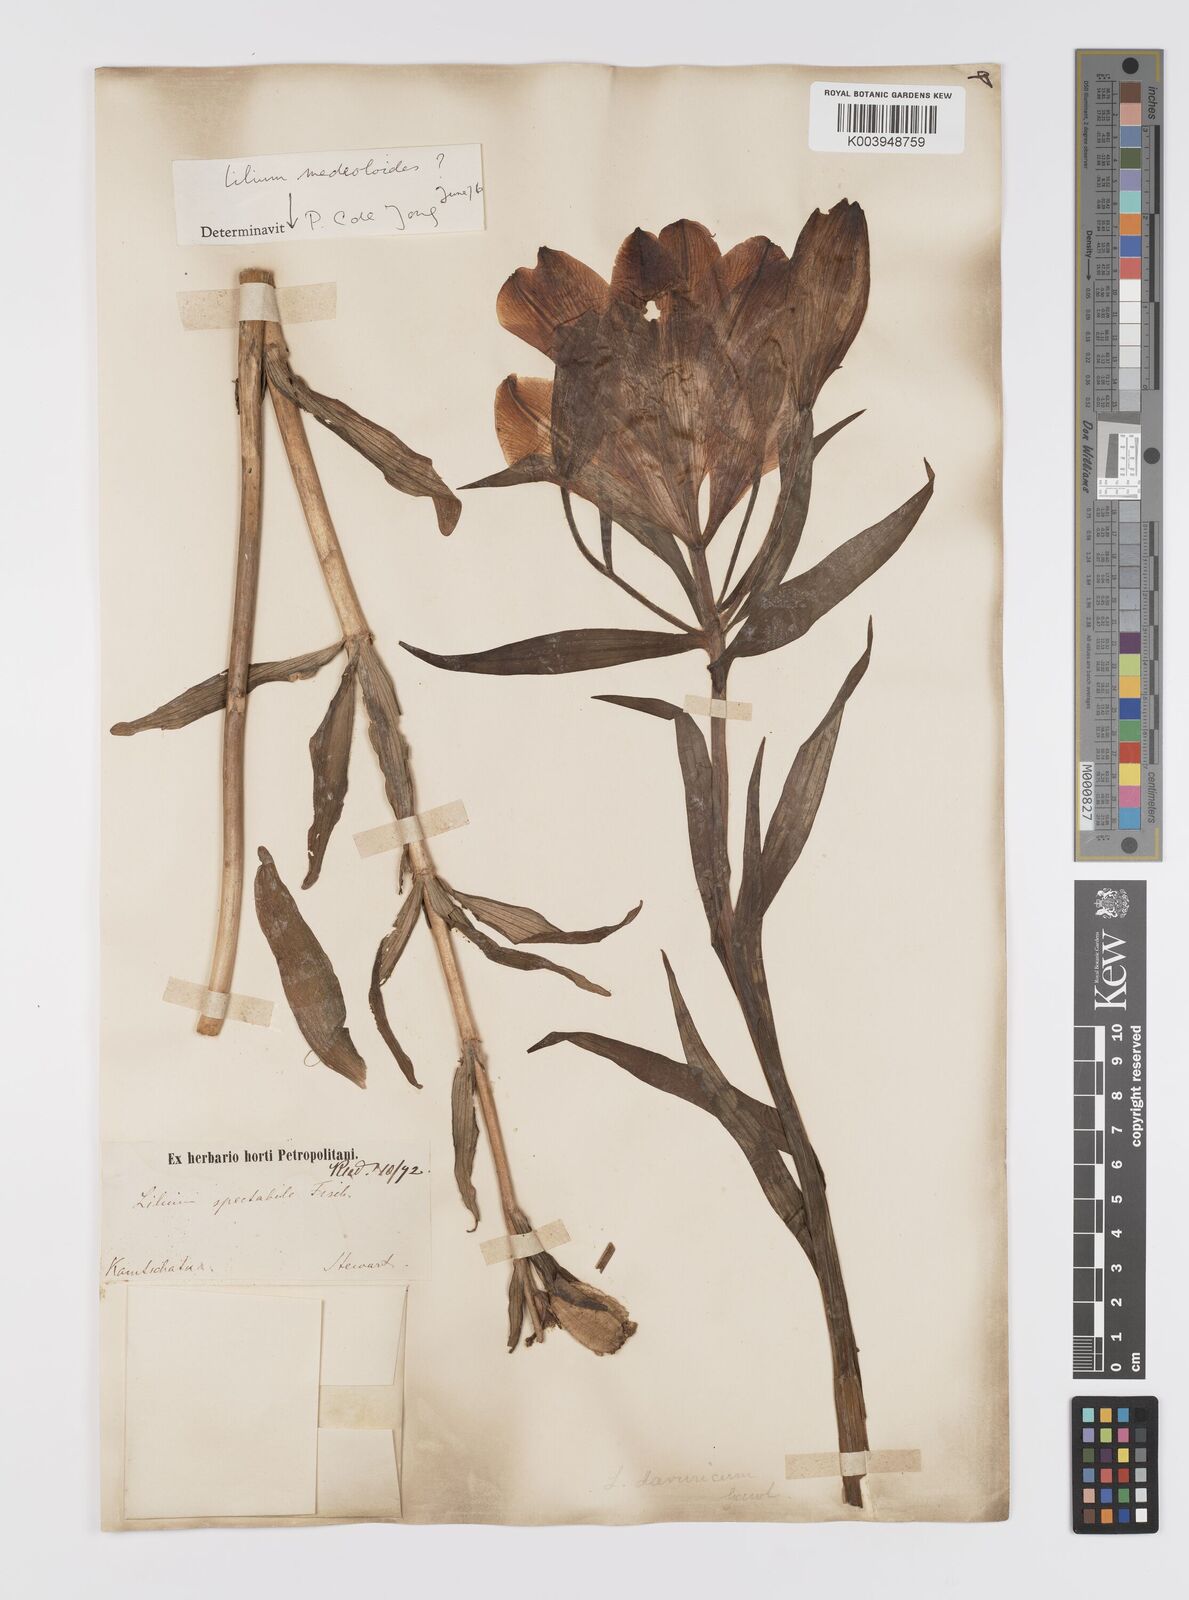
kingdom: Plantae
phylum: Tracheophyta
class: Liliopsida
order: Liliales
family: Liliaceae
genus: Lilium
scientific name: Lilium pensylvanicum
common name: Candlestick lily
